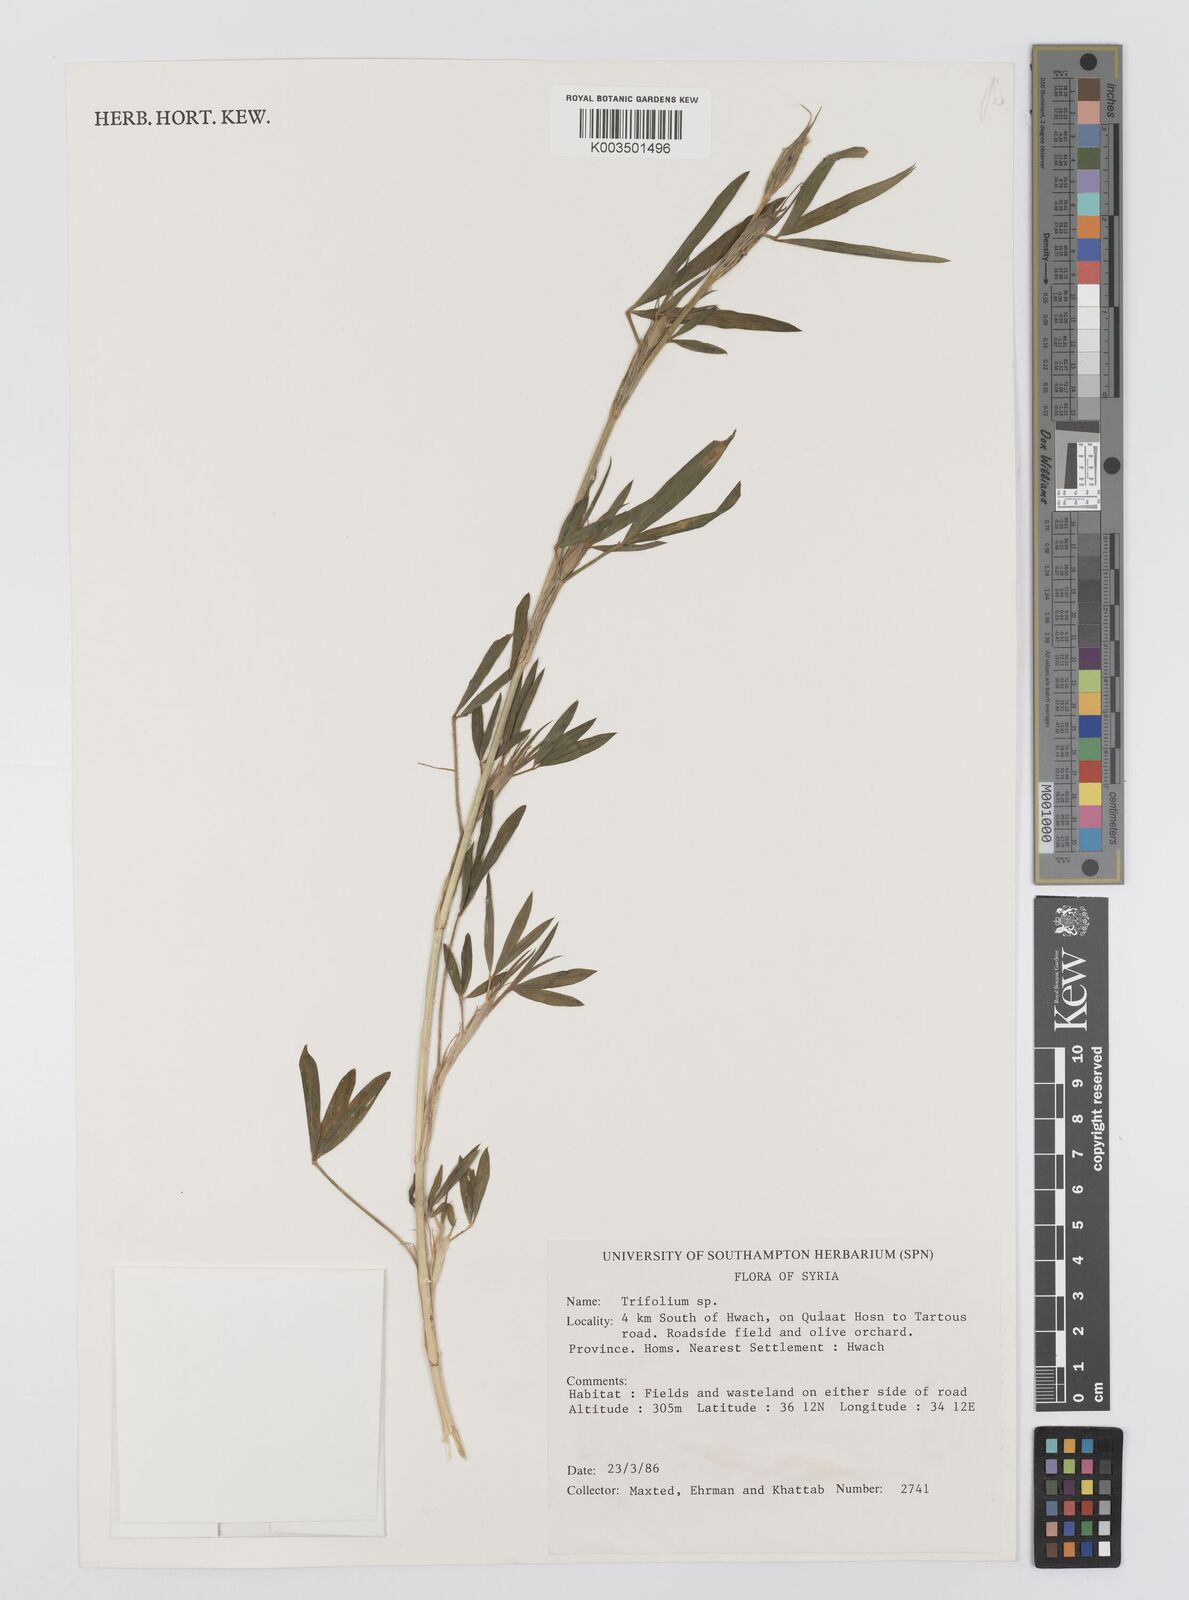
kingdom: Plantae
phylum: Tracheophyta
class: Magnoliopsida
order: Fabales
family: Fabaceae
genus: Trifolium
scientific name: Trifolium campestre
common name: Field clover
